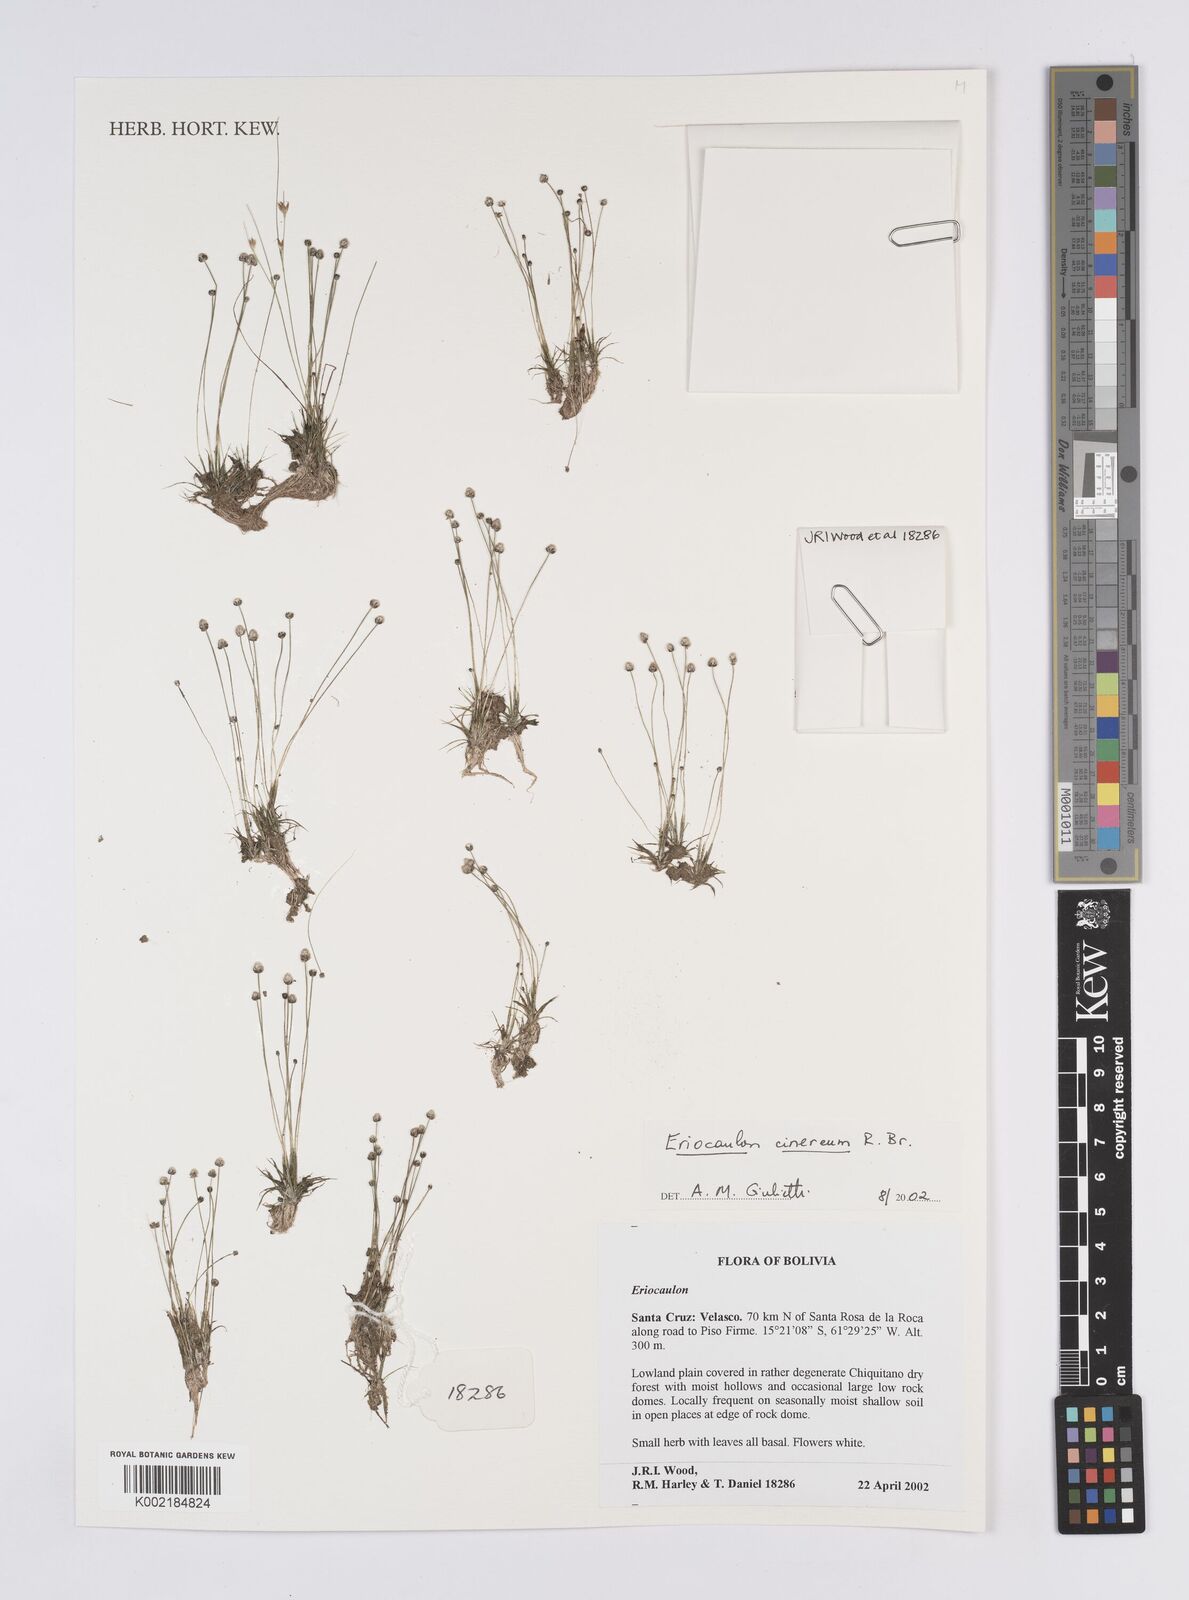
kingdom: Plantae
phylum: Tracheophyta
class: Liliopsida
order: Poales
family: Eriocaulaceae
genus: Eriocaulon
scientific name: Eriocaulon cinereum
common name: Ashy pipewort
